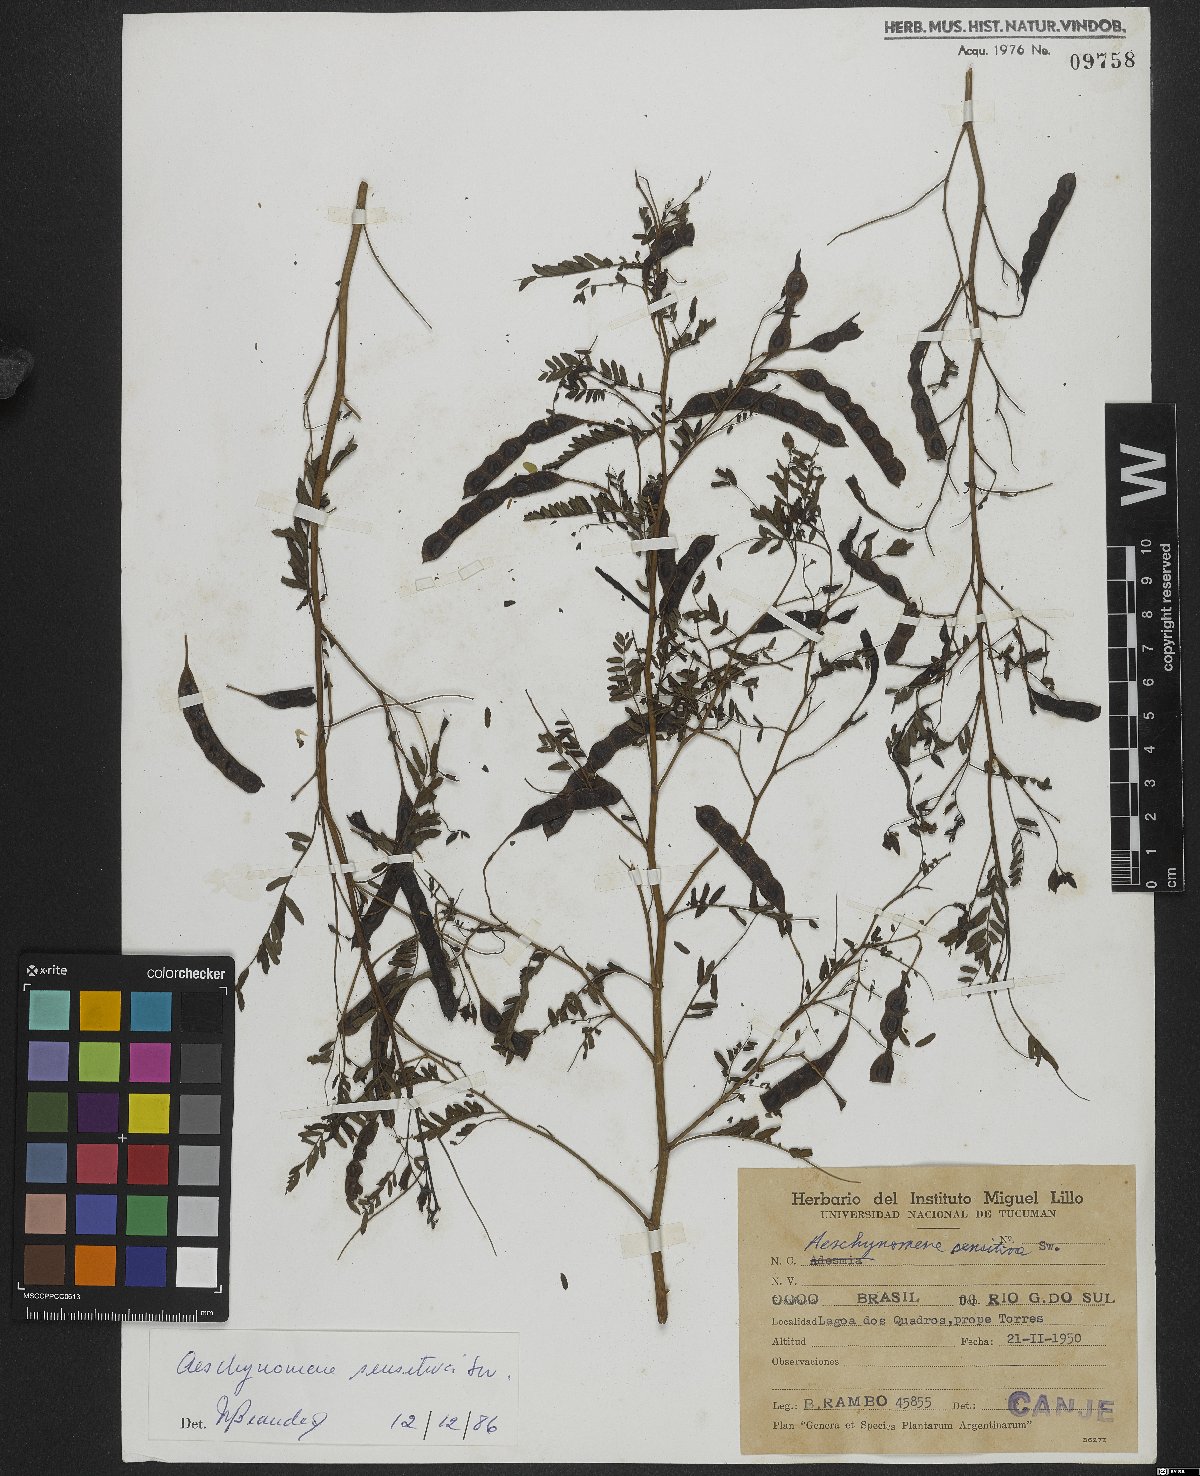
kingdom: Plantae
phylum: Tracheophyta
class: Magnoliopsida
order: Fabales
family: Fabaceae
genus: Aeschynomene
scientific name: Aeschynomene sensitiva
